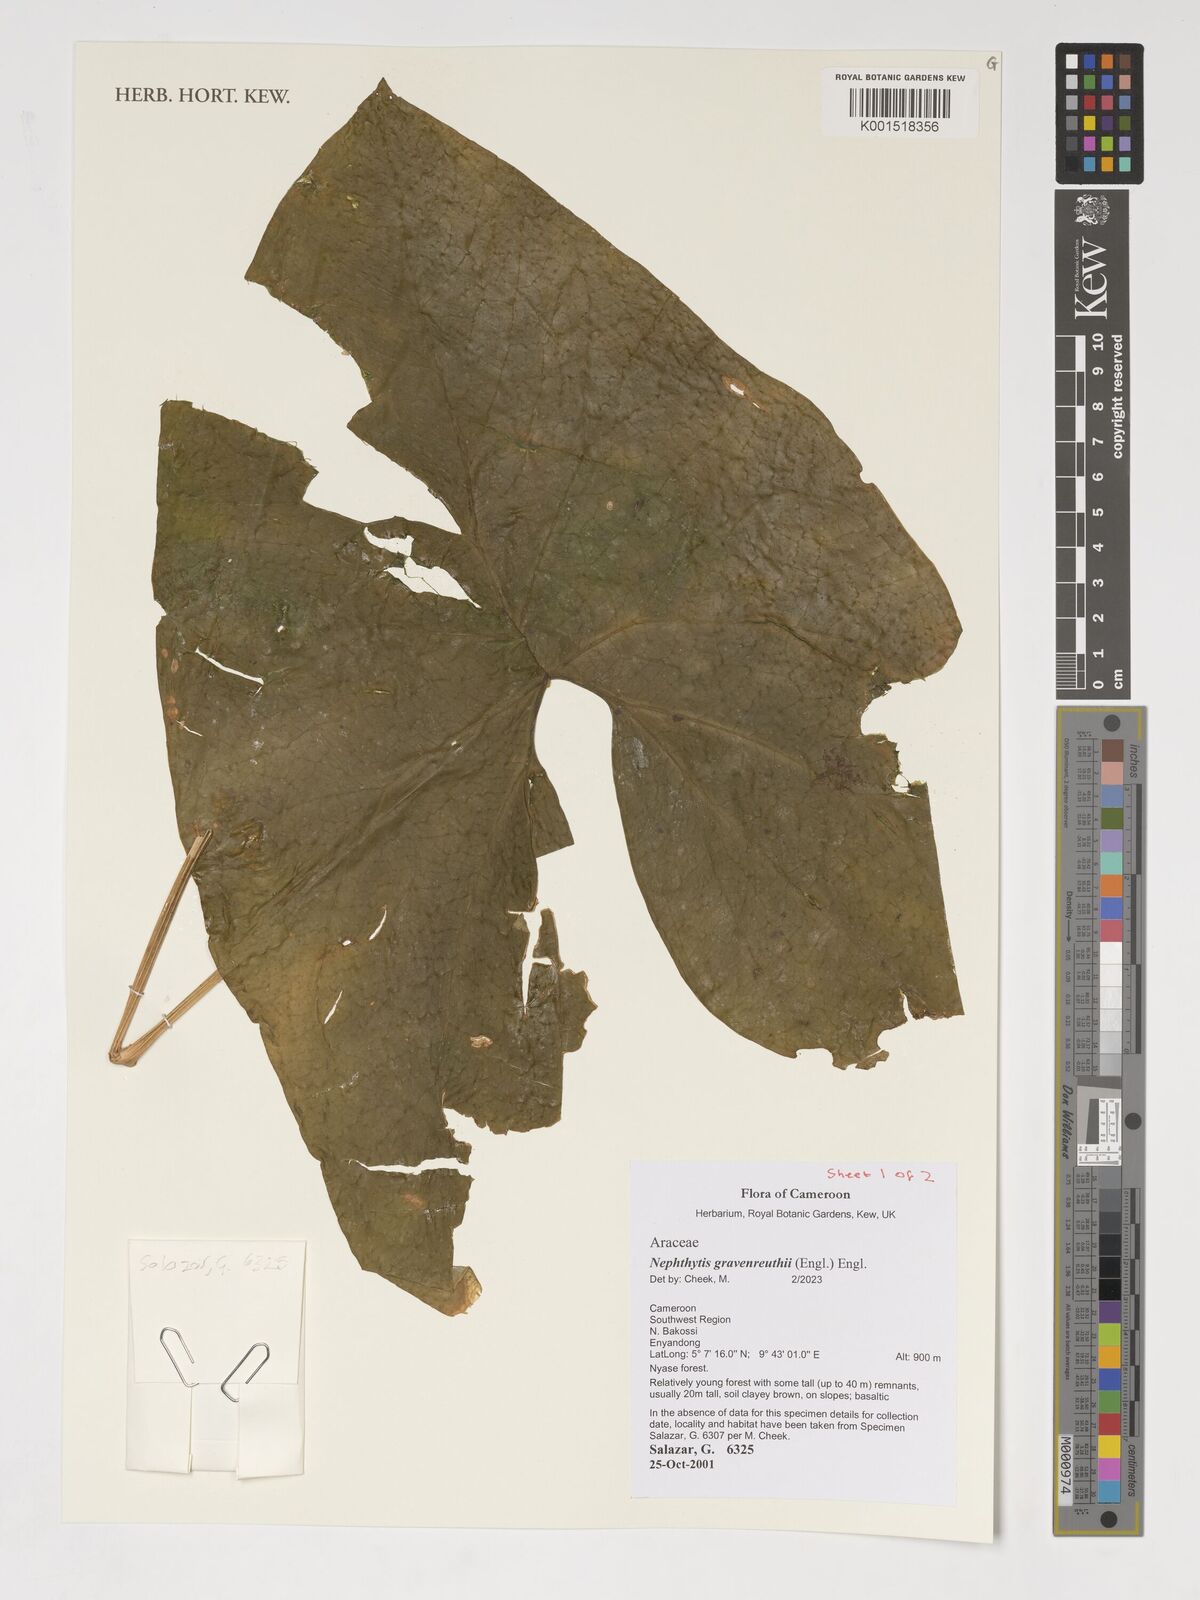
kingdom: Plantae
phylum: Tracheophyta
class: Liliopsida
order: Alismatales
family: Araceae
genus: Nephthytis
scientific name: Nephthytis poissonii
